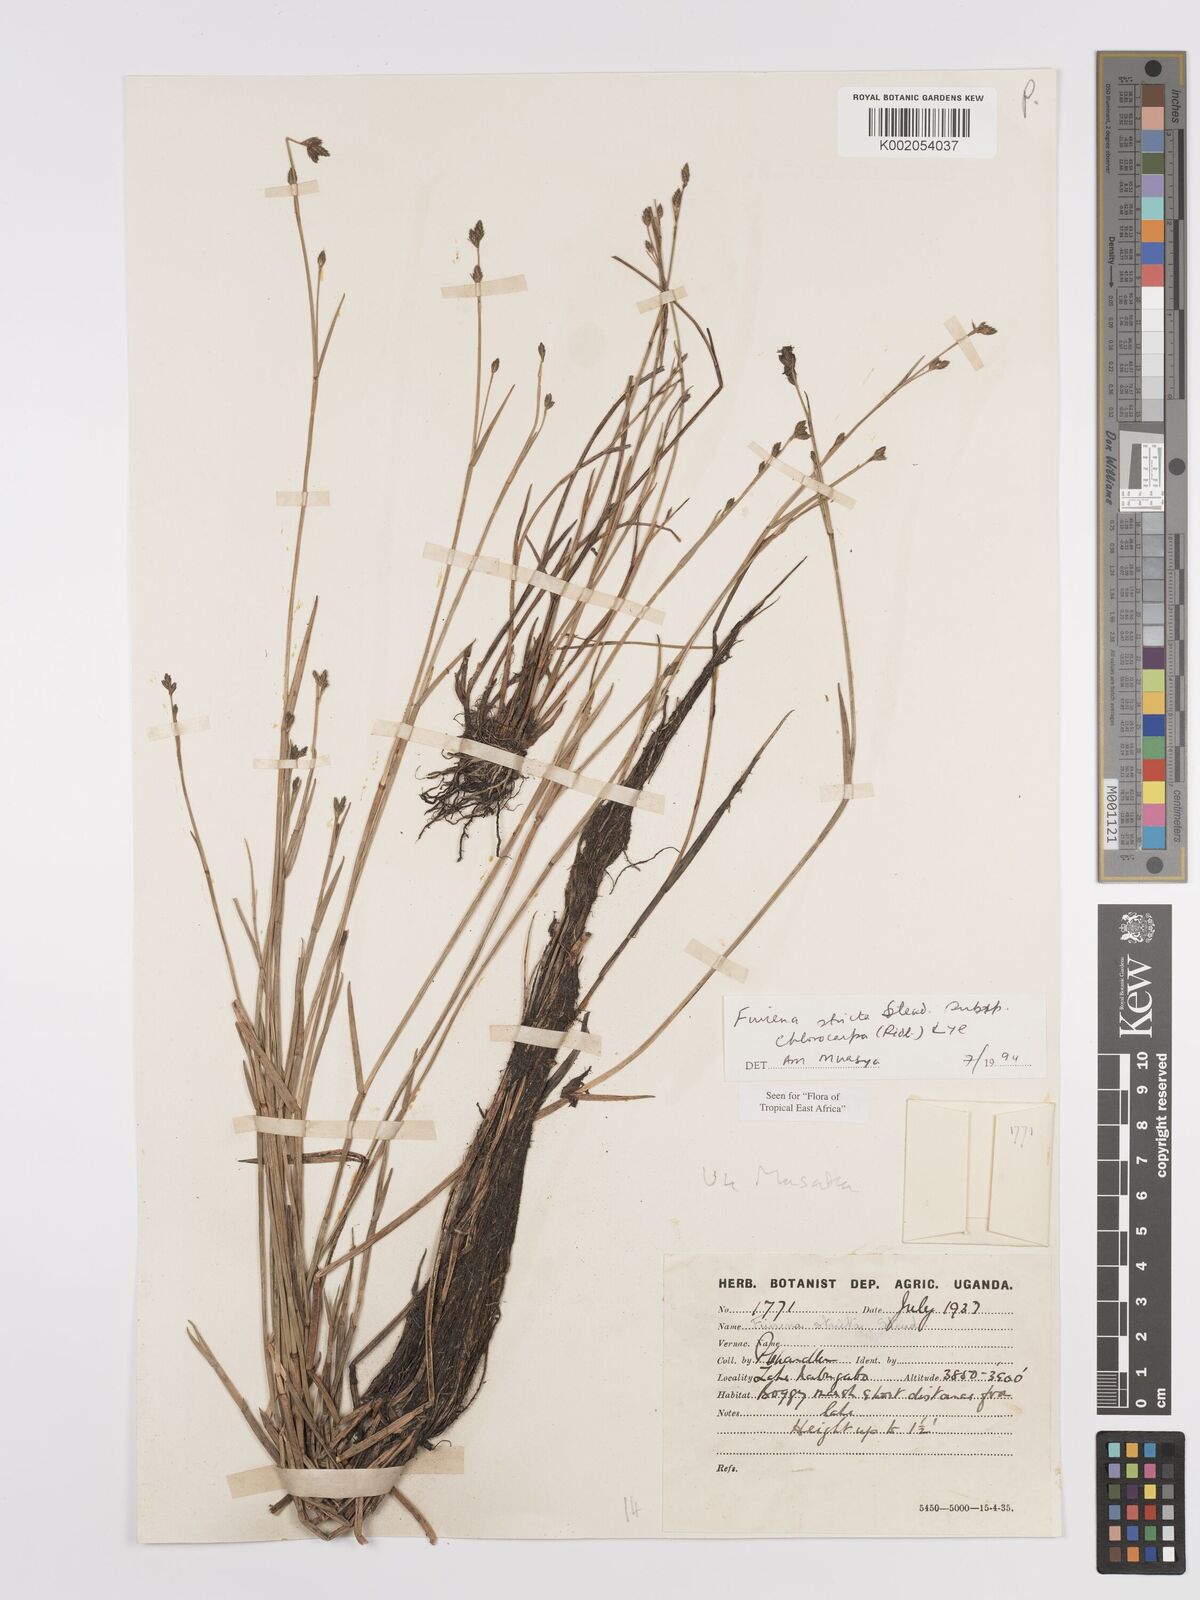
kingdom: Plantae
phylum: Tracheophyta
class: Liliopsida
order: Poales
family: Cyperaceae
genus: Fuirena
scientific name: Fuirena stricta
